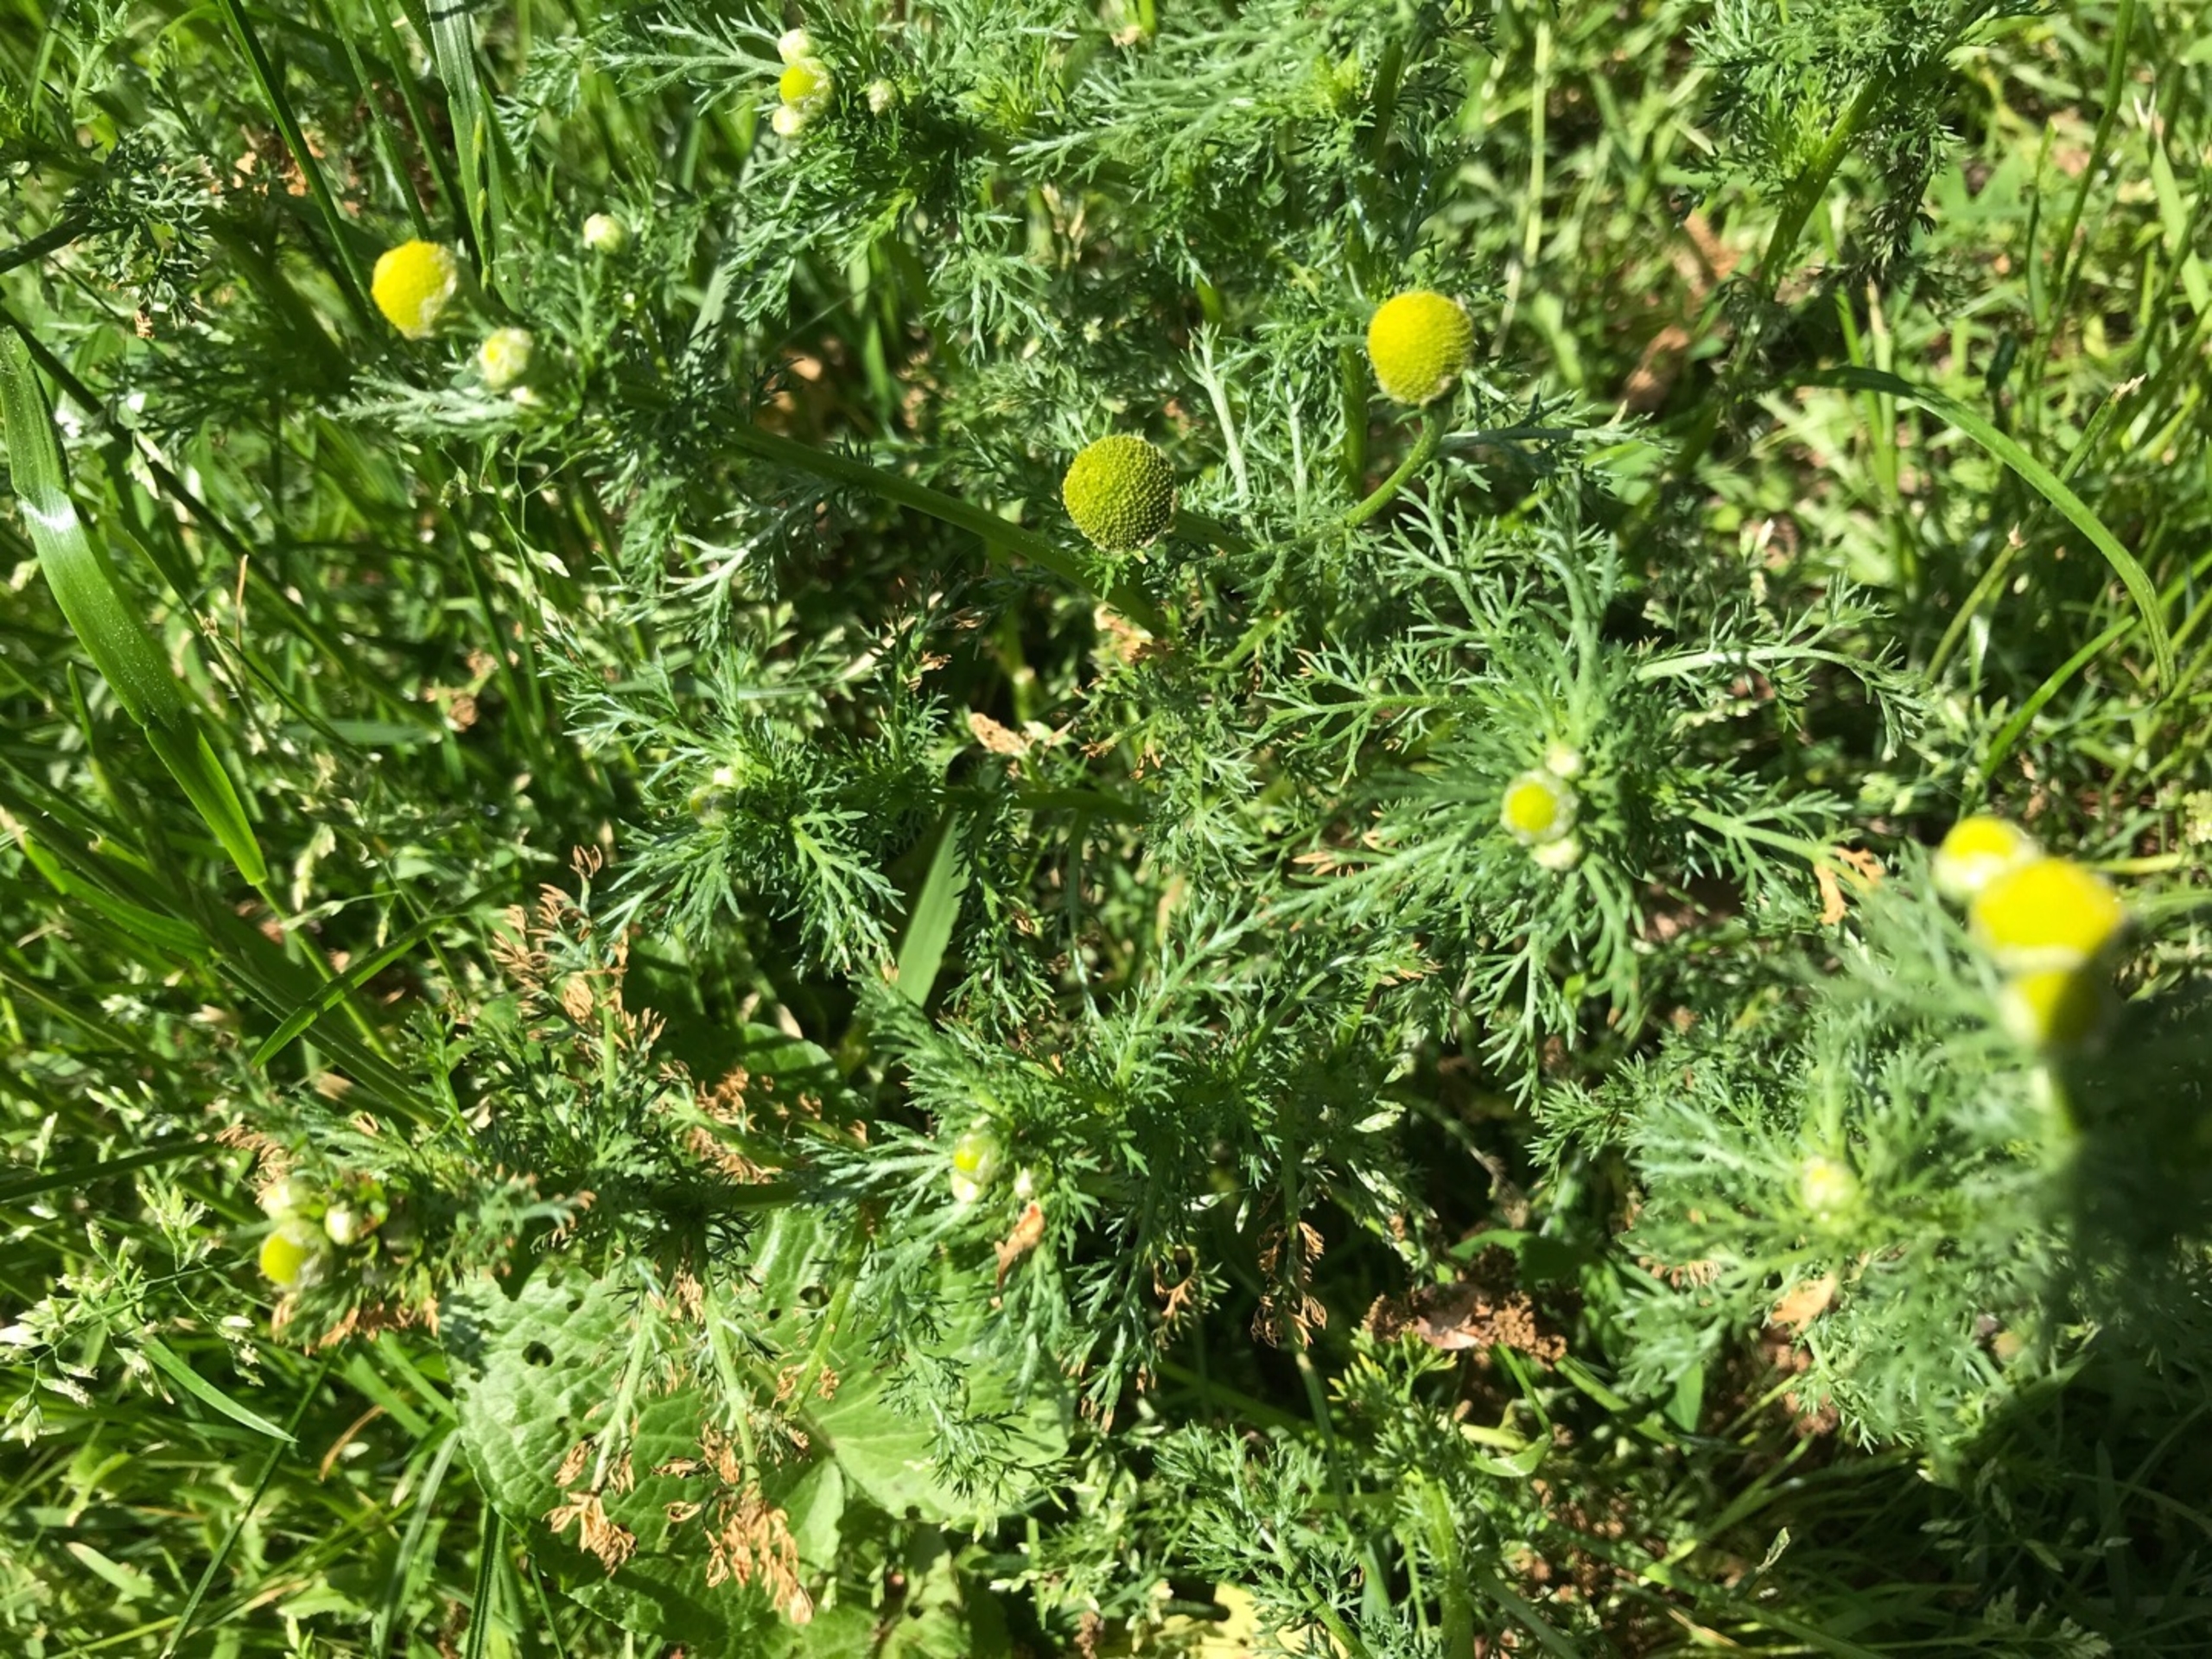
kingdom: Plantae
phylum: Tracheophyta
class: Magnoliopsida
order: Asterales
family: Asteraceae
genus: Matricaria
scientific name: Matricaria discoidea
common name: Skive-kamille
